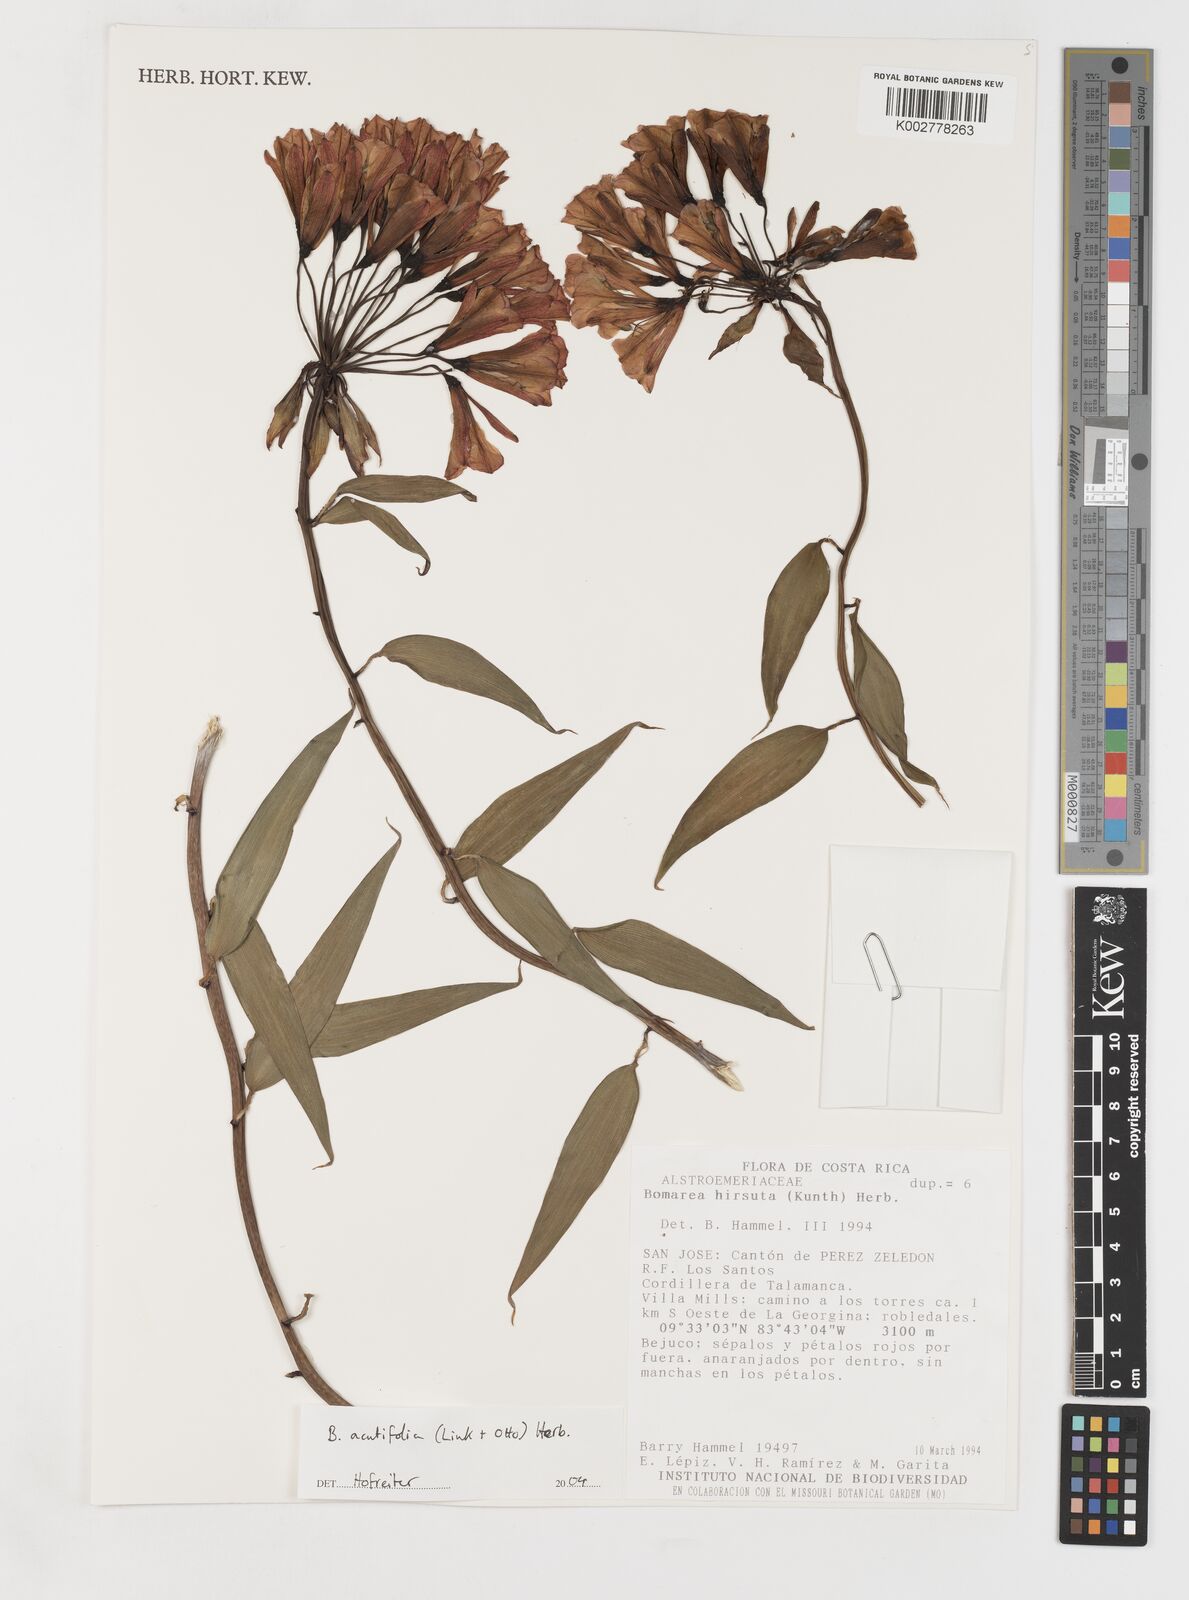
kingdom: Plantae
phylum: Tracheophyta
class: Liliopsida
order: Liliales
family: Alstroemeriaceae
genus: Bomarea
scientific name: Bomarea acutifolia
